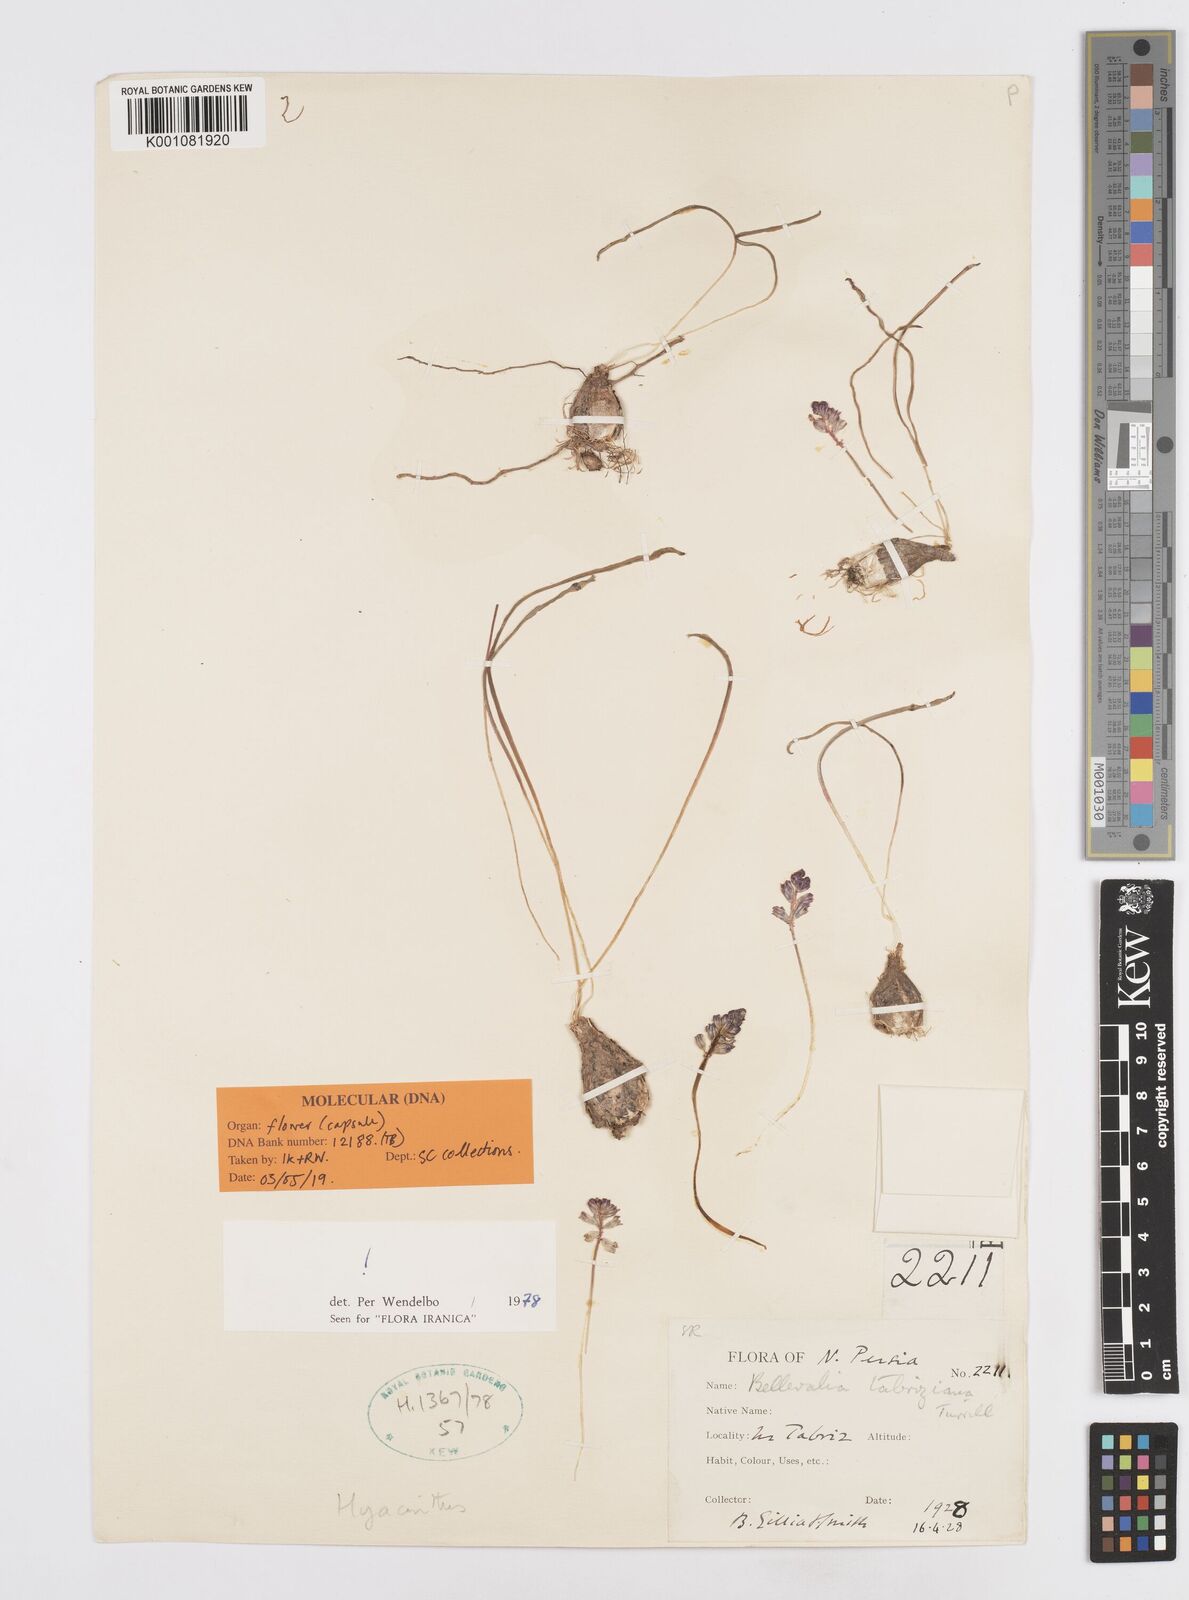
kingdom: Plantae
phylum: Tracheophyta
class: Liliopsida
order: Asparagales
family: Asparagaceae
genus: Bellevalia
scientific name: Bellevalia tabriziana
